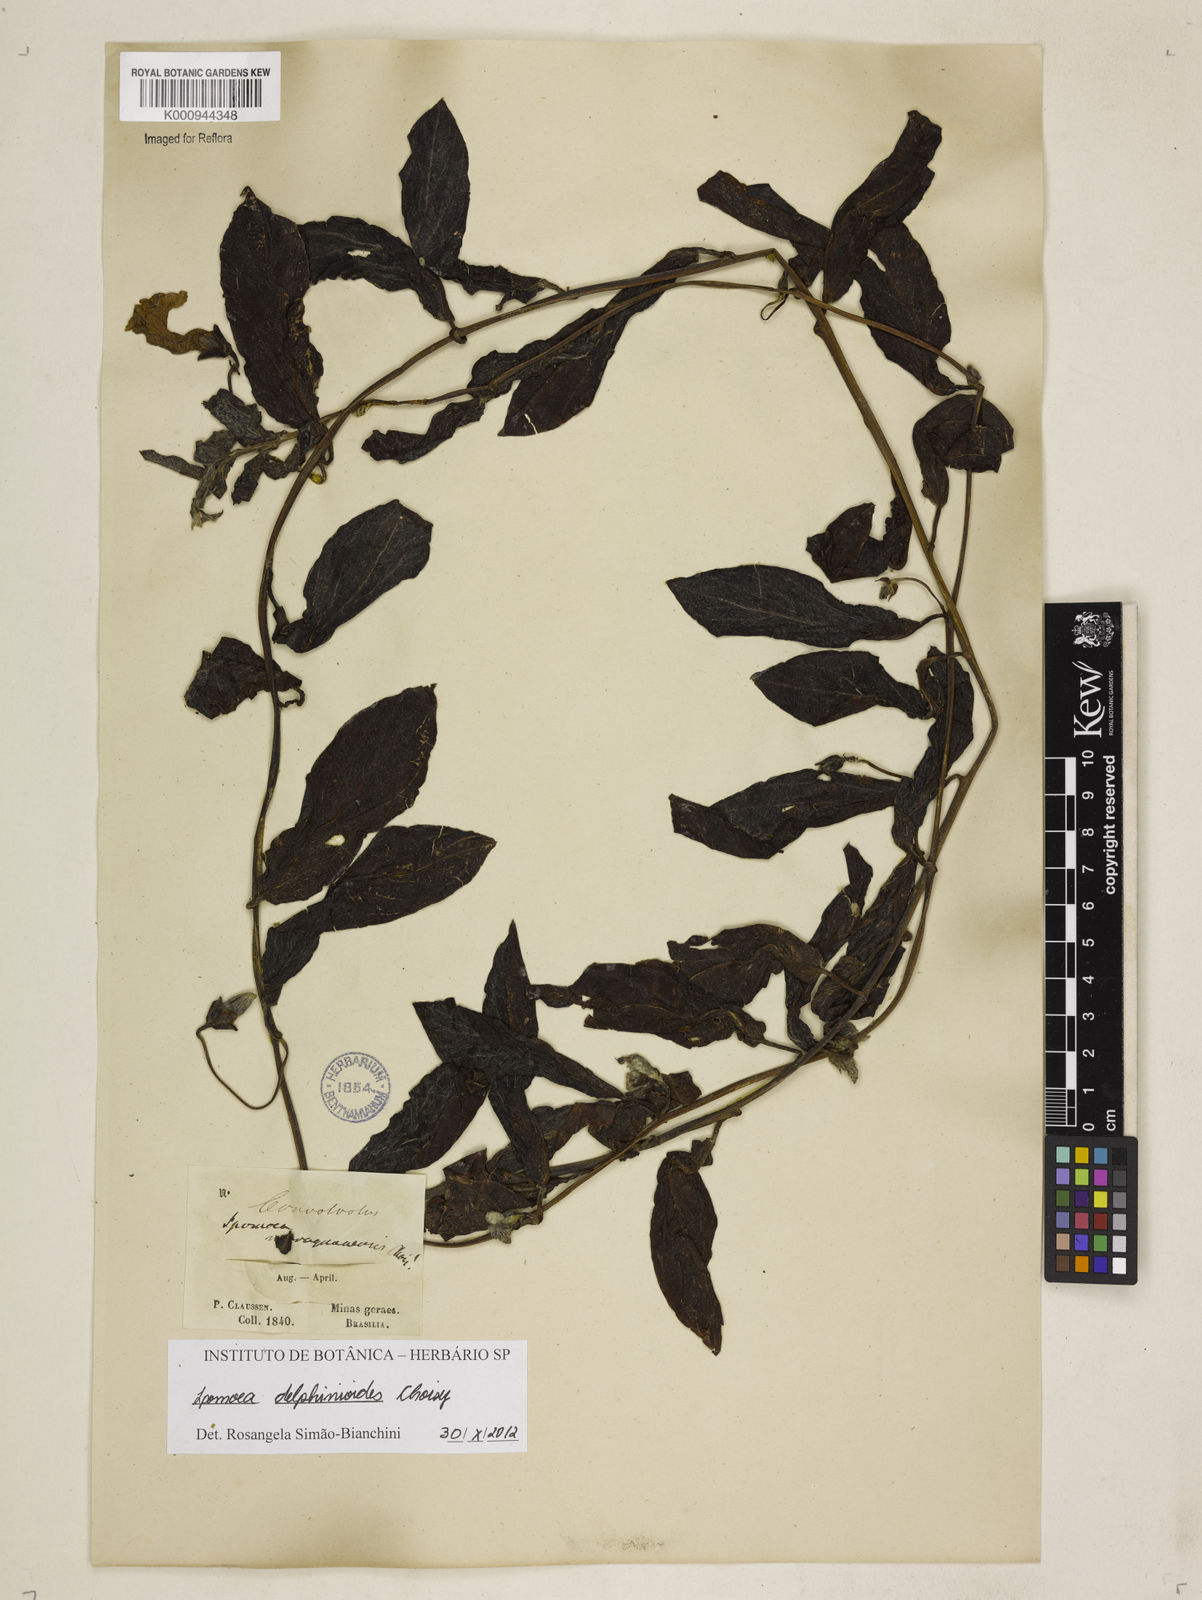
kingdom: Plantae
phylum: Tracheophyta
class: Magnoliopsida
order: Solanales
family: Convolvulaceae
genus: Ipomoea
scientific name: Ipomoea delphinioides
